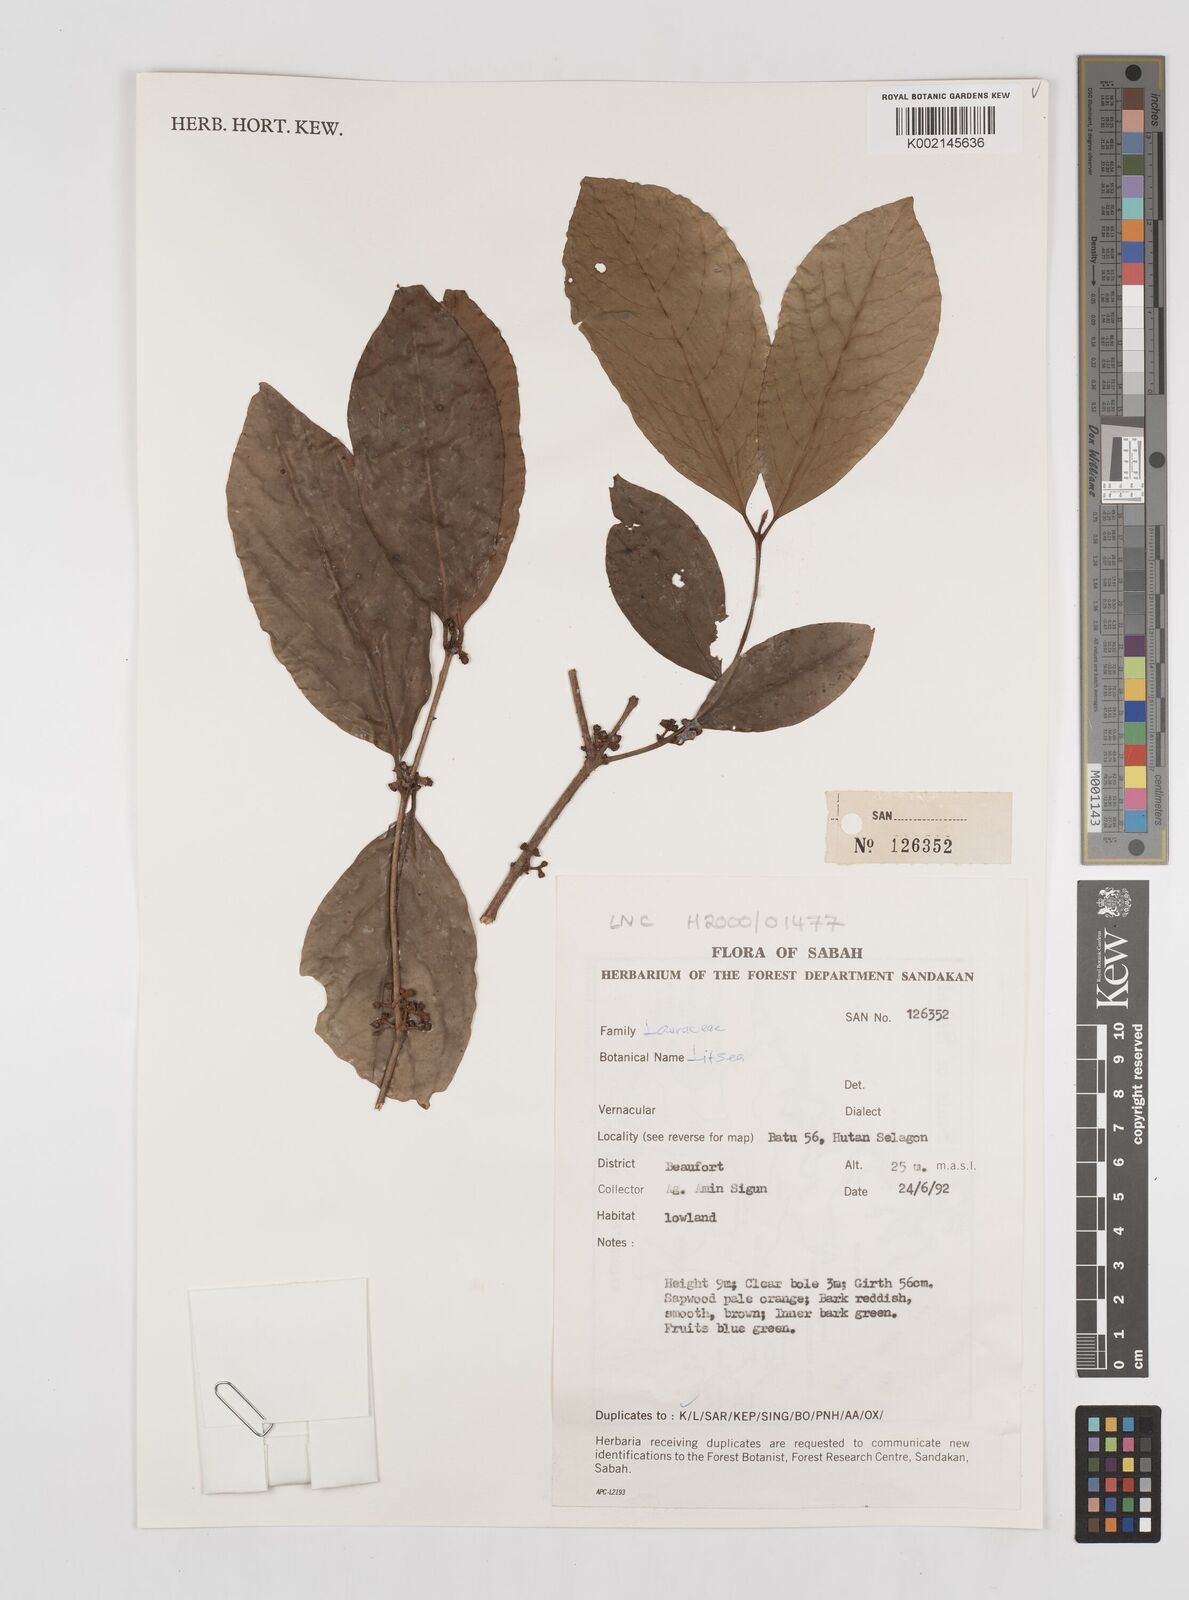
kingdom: Plantae
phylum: Tracheophyta
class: Magnoliopsida
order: Laurales
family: Lauraceae
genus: Litsea
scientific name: Litsea
